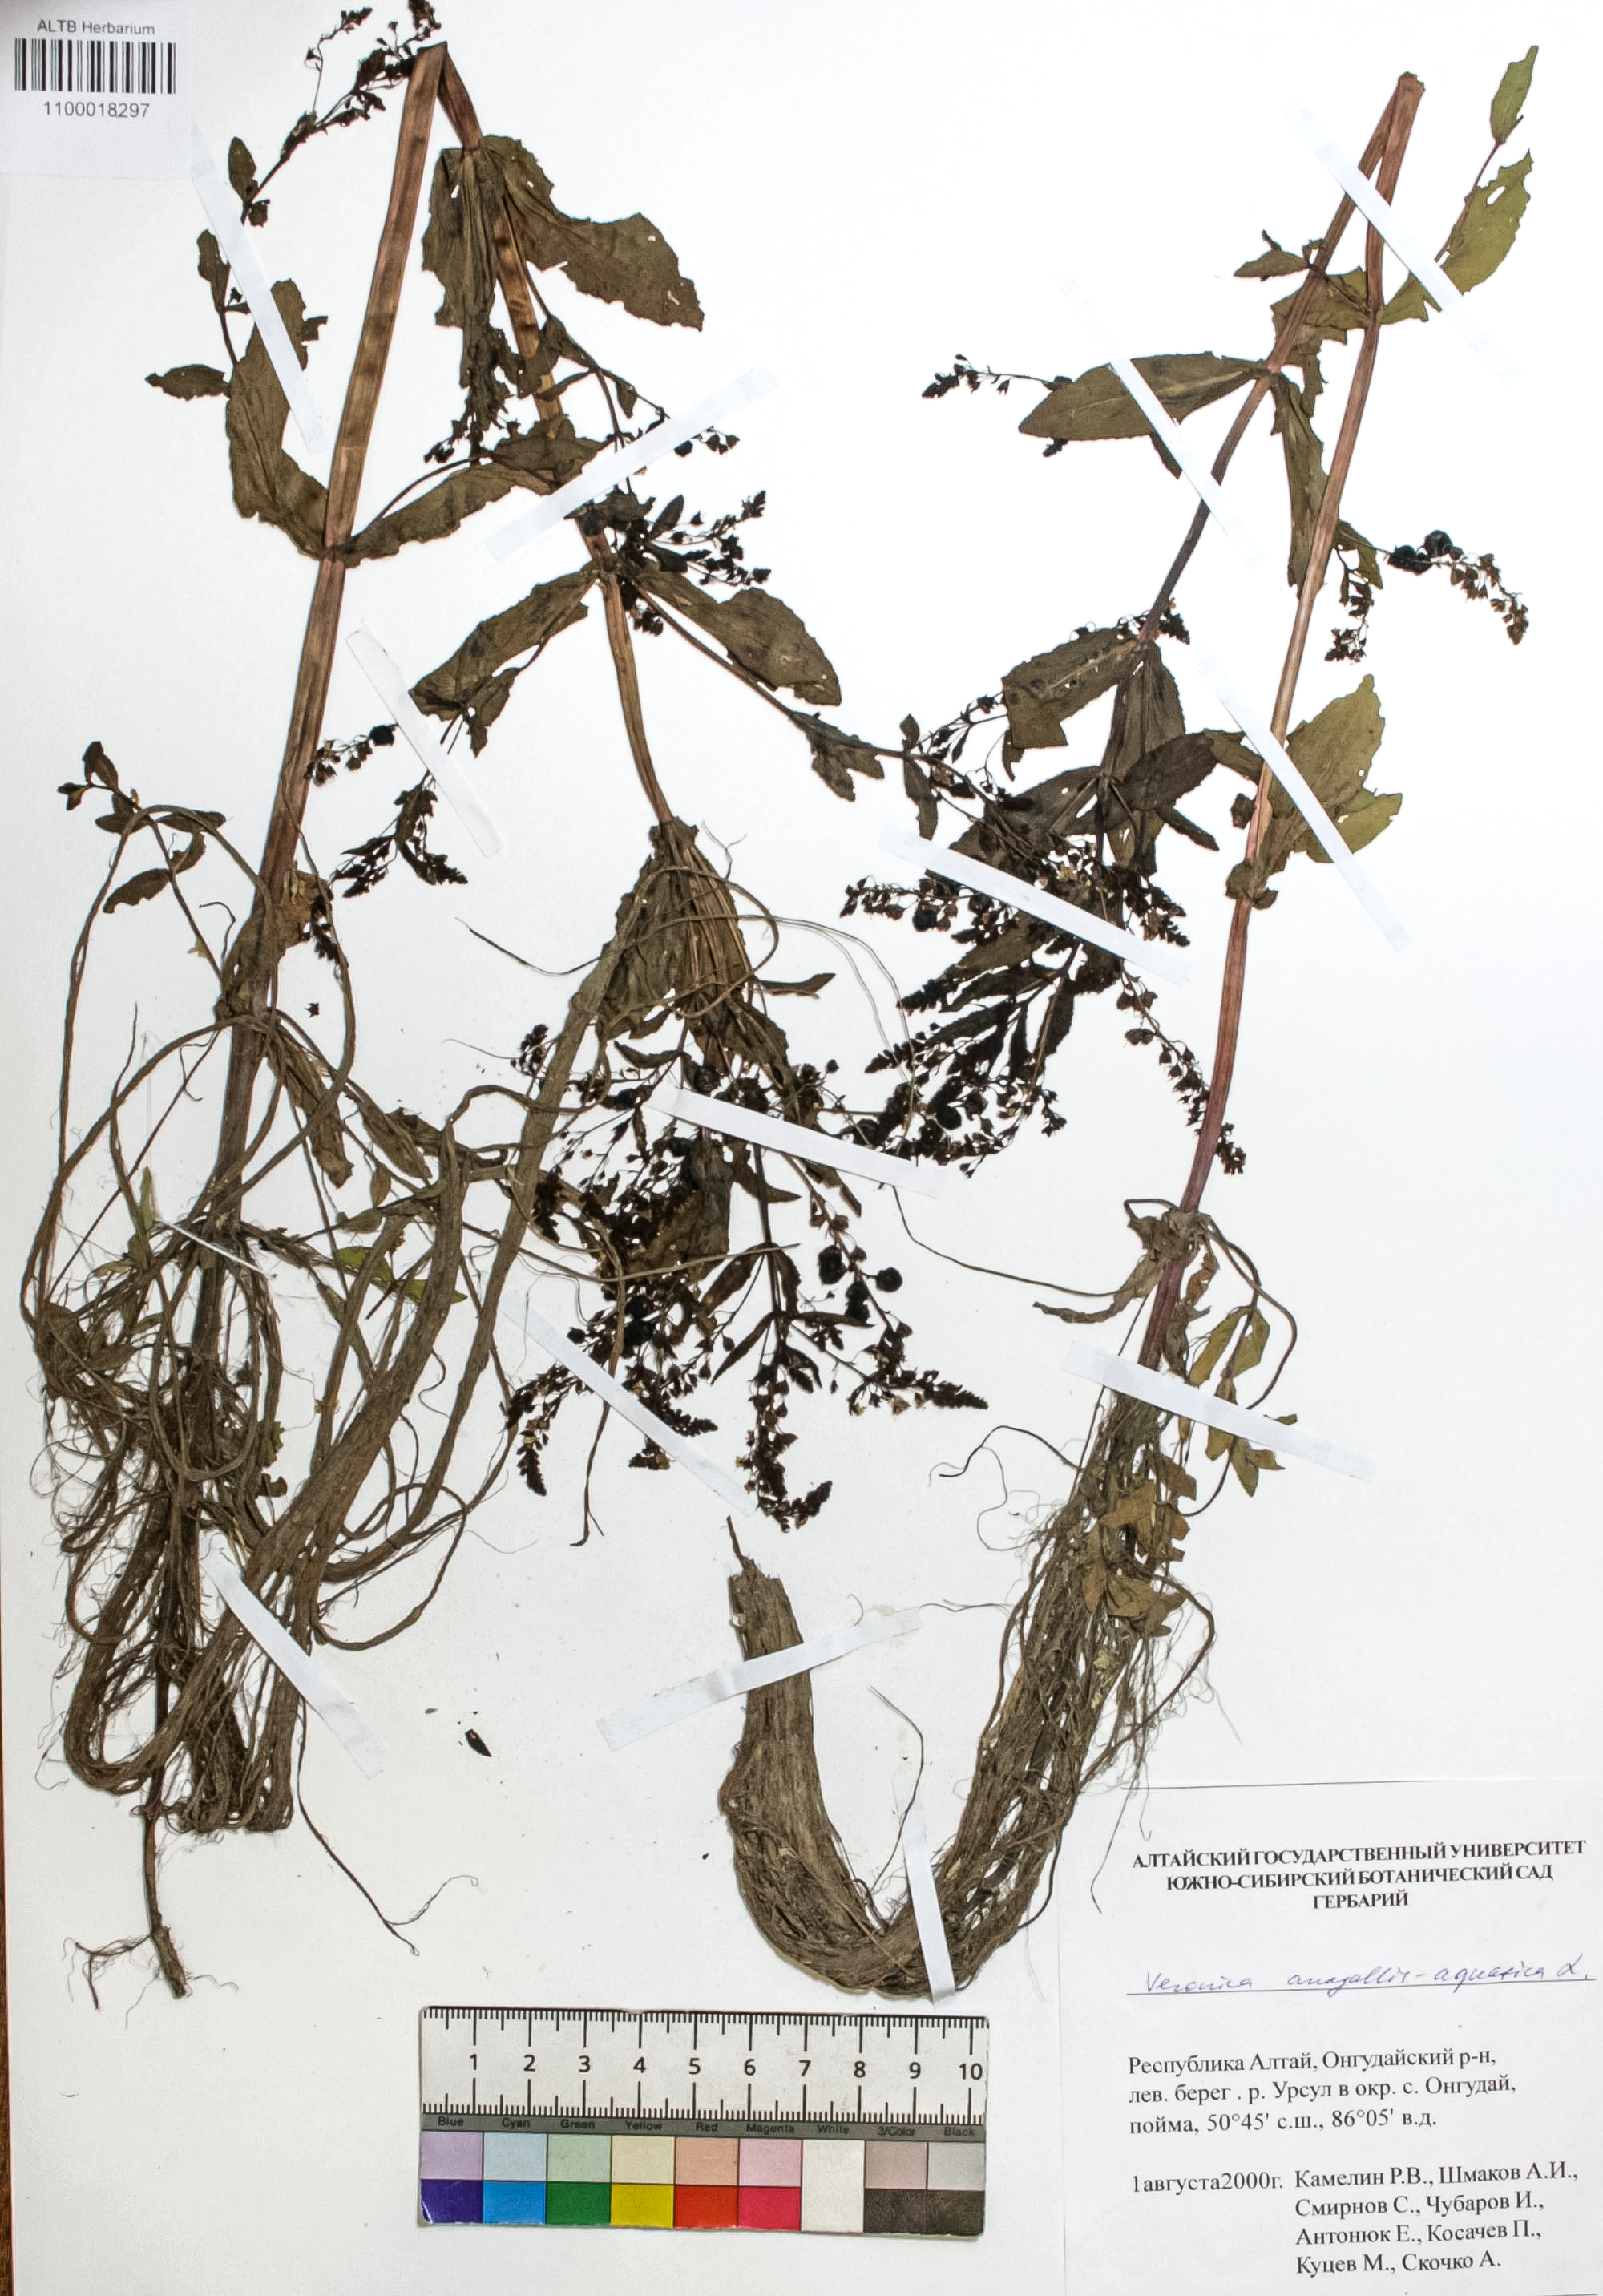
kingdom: Plantae
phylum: Tracheophyta
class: Magnoliopsida
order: Lamiales
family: Plantaginaceae
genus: Veronica
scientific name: Veronica anagallis-aquatica
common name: Water speedwell
